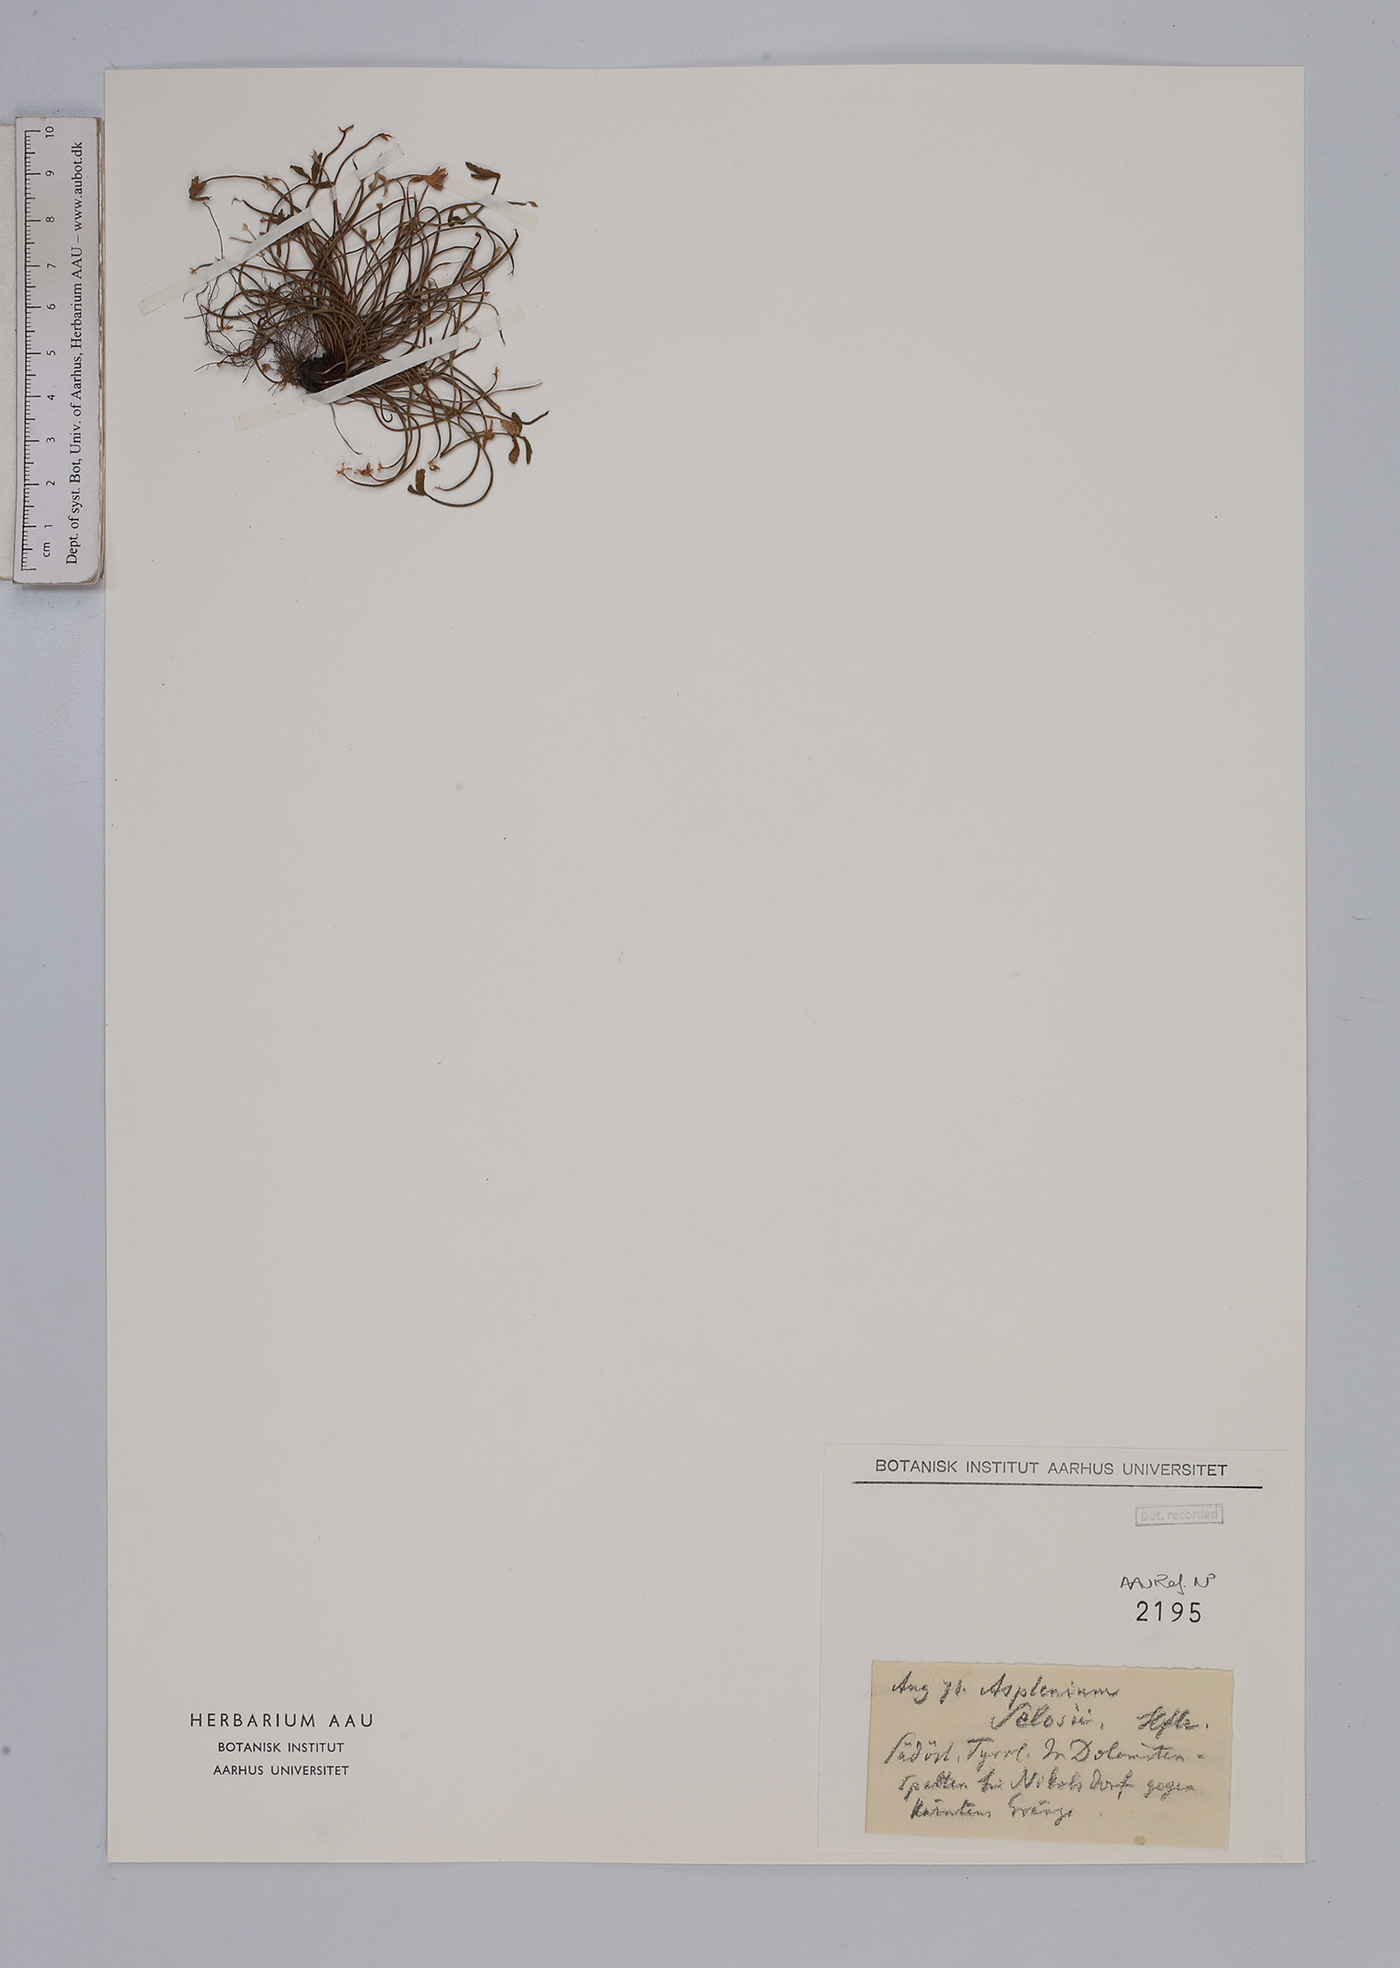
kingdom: Plantae
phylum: Tracheophyta
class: Polypodiopsida
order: Polypodiales
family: Aspleniaceae
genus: Asplenium
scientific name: Asplenium seelosii
